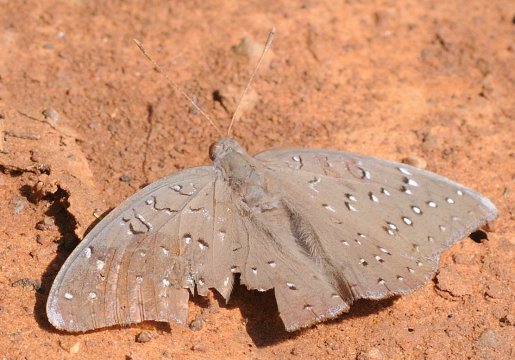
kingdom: Animalia
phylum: Arthropoda
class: Insecta
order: Lepidoptera
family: Nymphalidae
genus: Hamanumida
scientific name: Hamanumida daedalus
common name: Guineafowl
